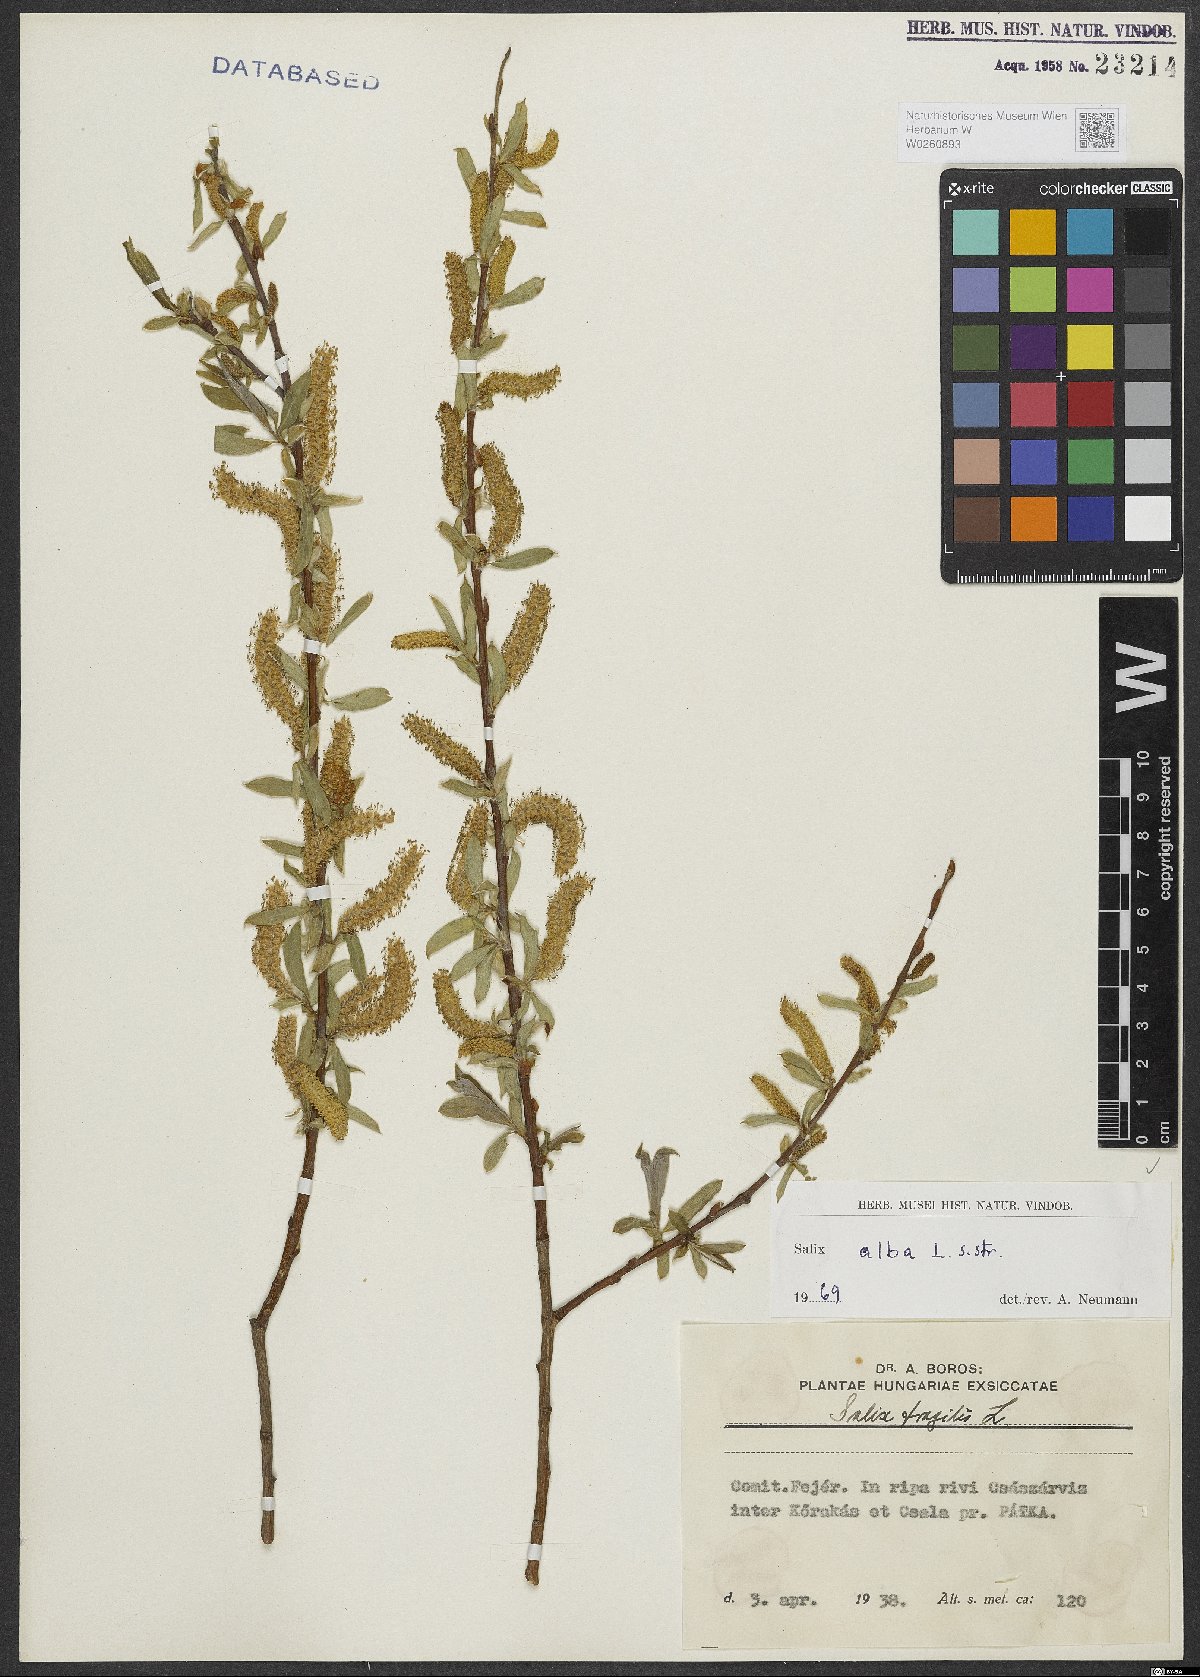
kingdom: Plantae
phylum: Tracheophyta
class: Magnoliopsida
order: Malpighiales
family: Salicaceae
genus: Salix
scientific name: Salix alba
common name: White willow
